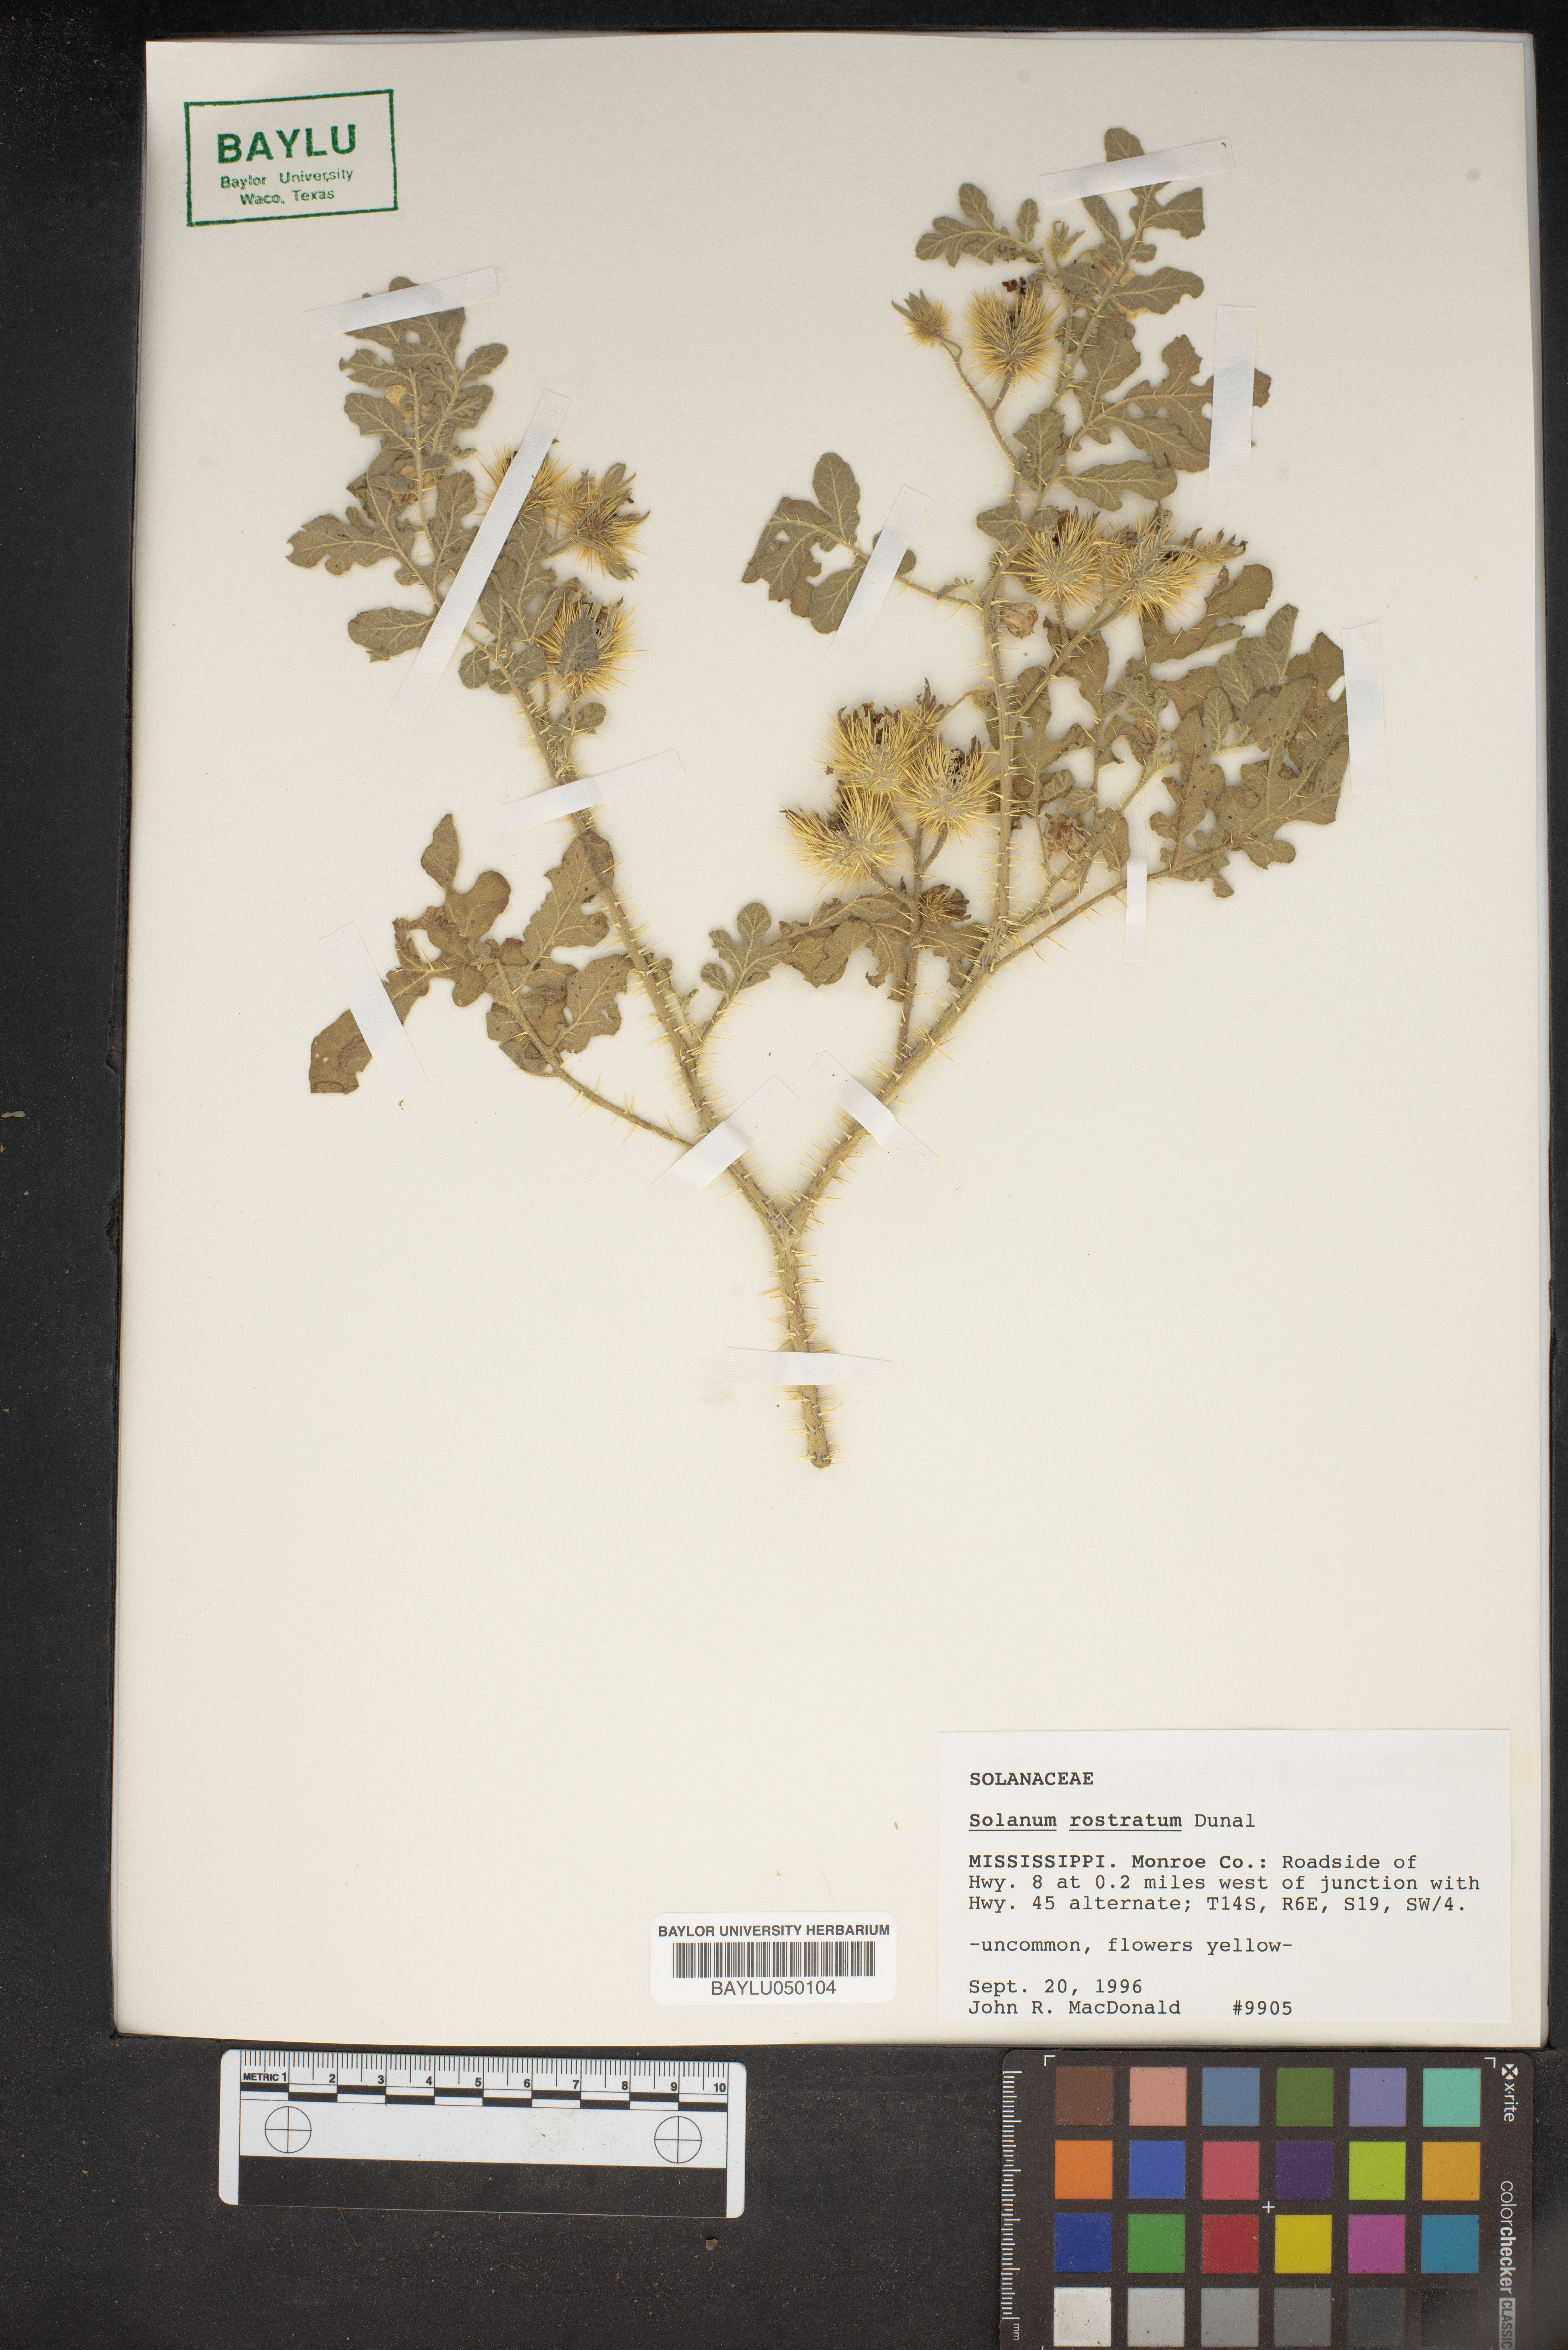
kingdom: Plantae
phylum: Tracheophyta
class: Magnoliopsida
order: Solanales
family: Solanaceae
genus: Solanum
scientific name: Solanum angustifolium
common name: Buffalobur nightshade
